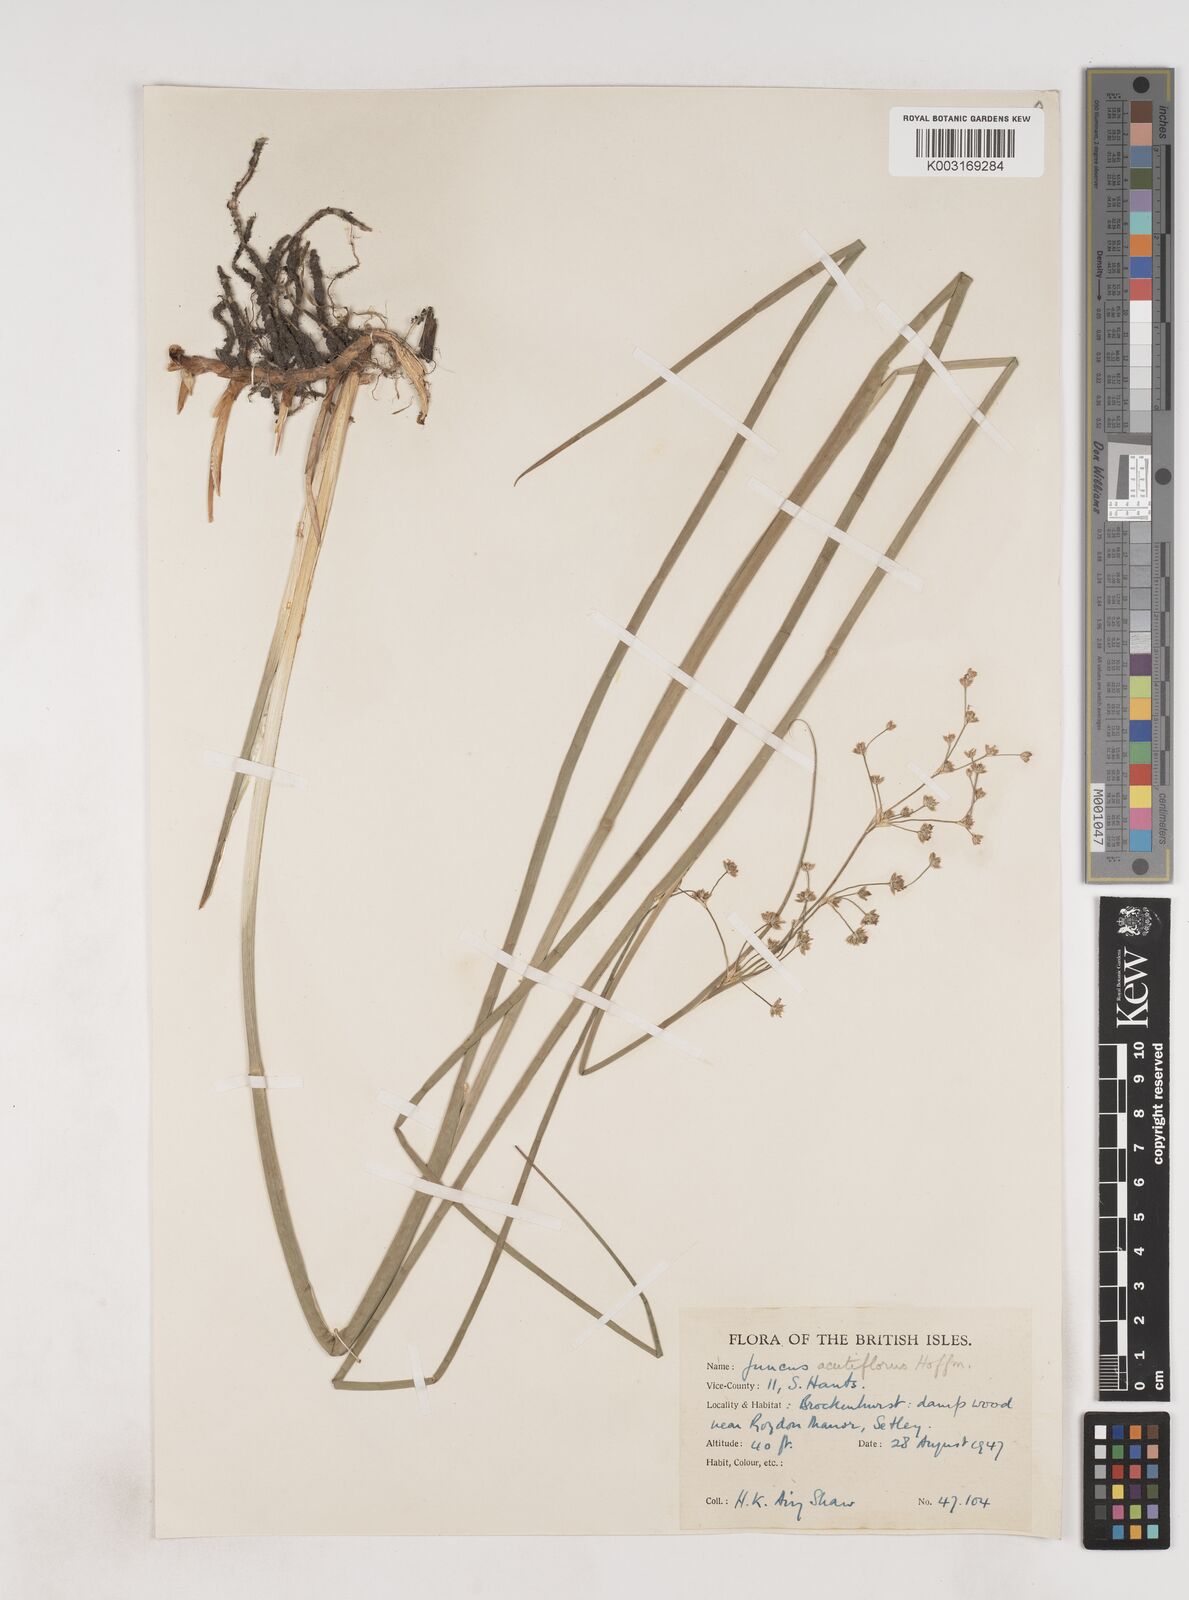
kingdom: Plantae
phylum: Tracheophyta
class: Liliopsida
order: Poales
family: Juncaceae
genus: Juncus
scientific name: Juncus acutiflorus
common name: Sharp-flowered rush
